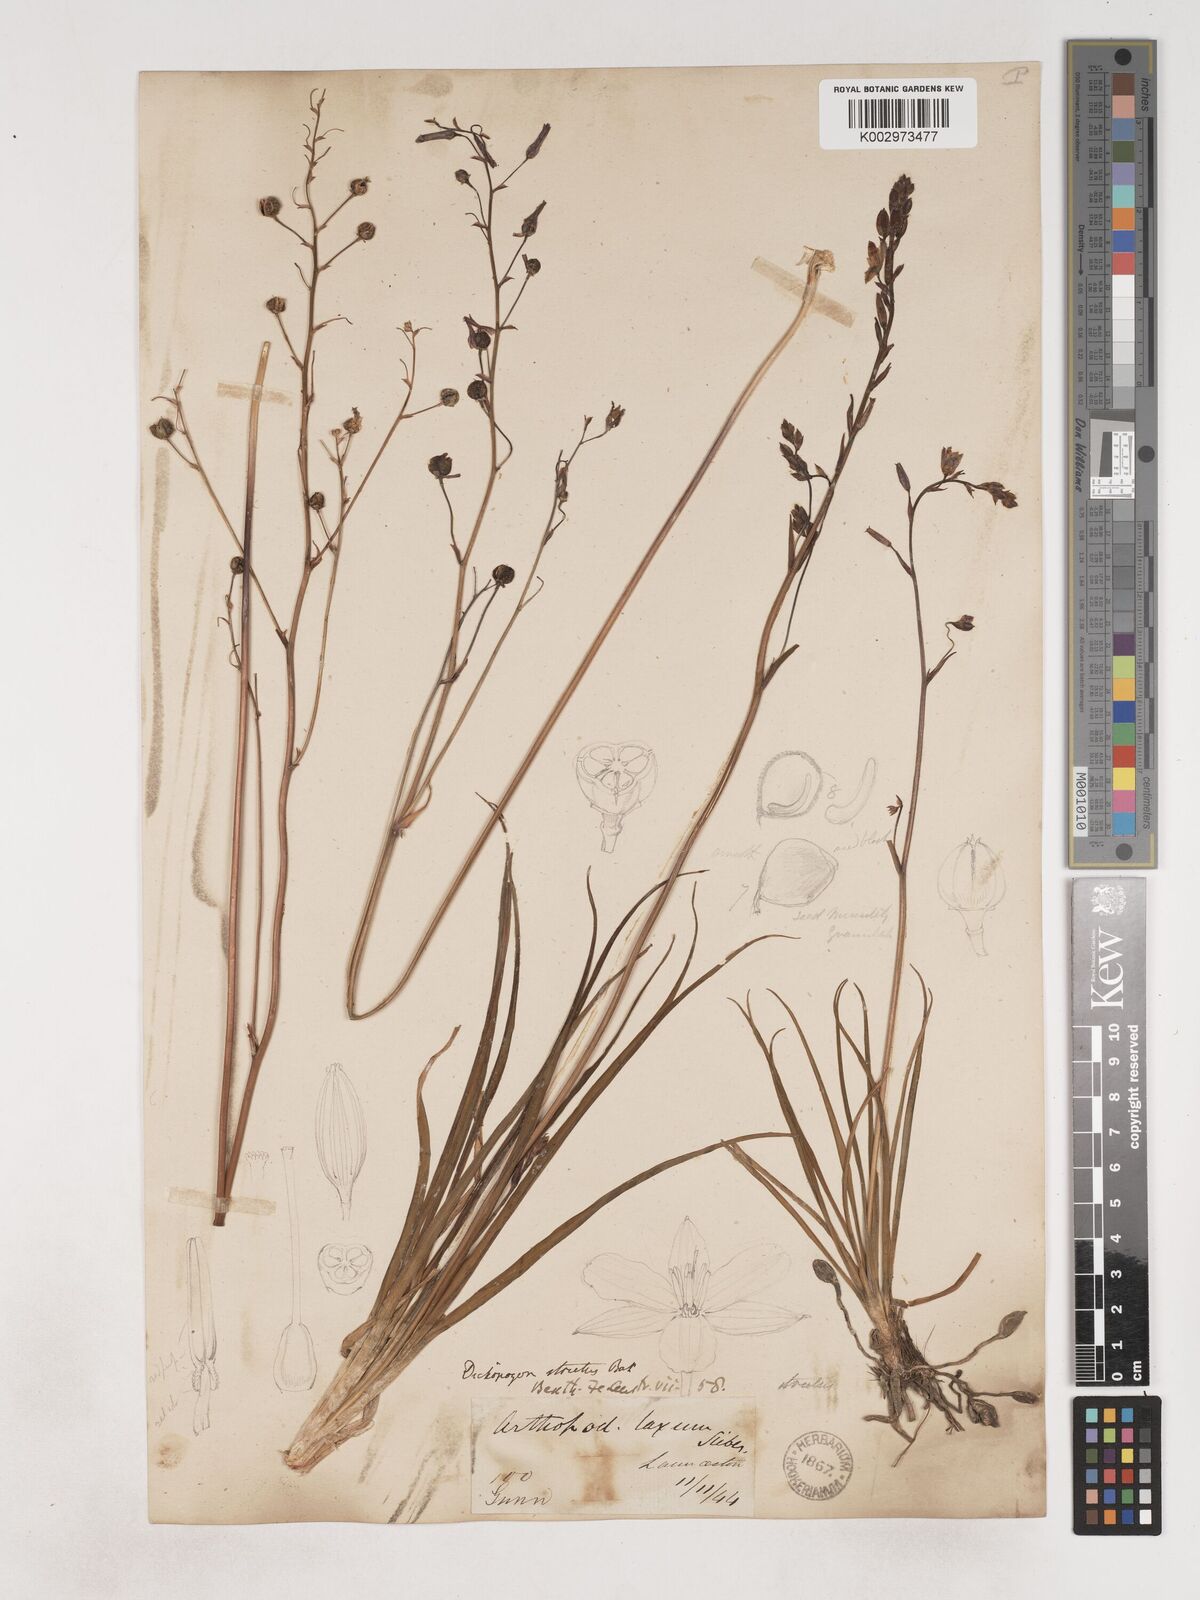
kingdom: Plantae
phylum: Tracheophyta
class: Liliopsida
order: Asparagales
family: Asparagaceae
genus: Arthropodium
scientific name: Arthropodium strictum
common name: Chocolate-lily
